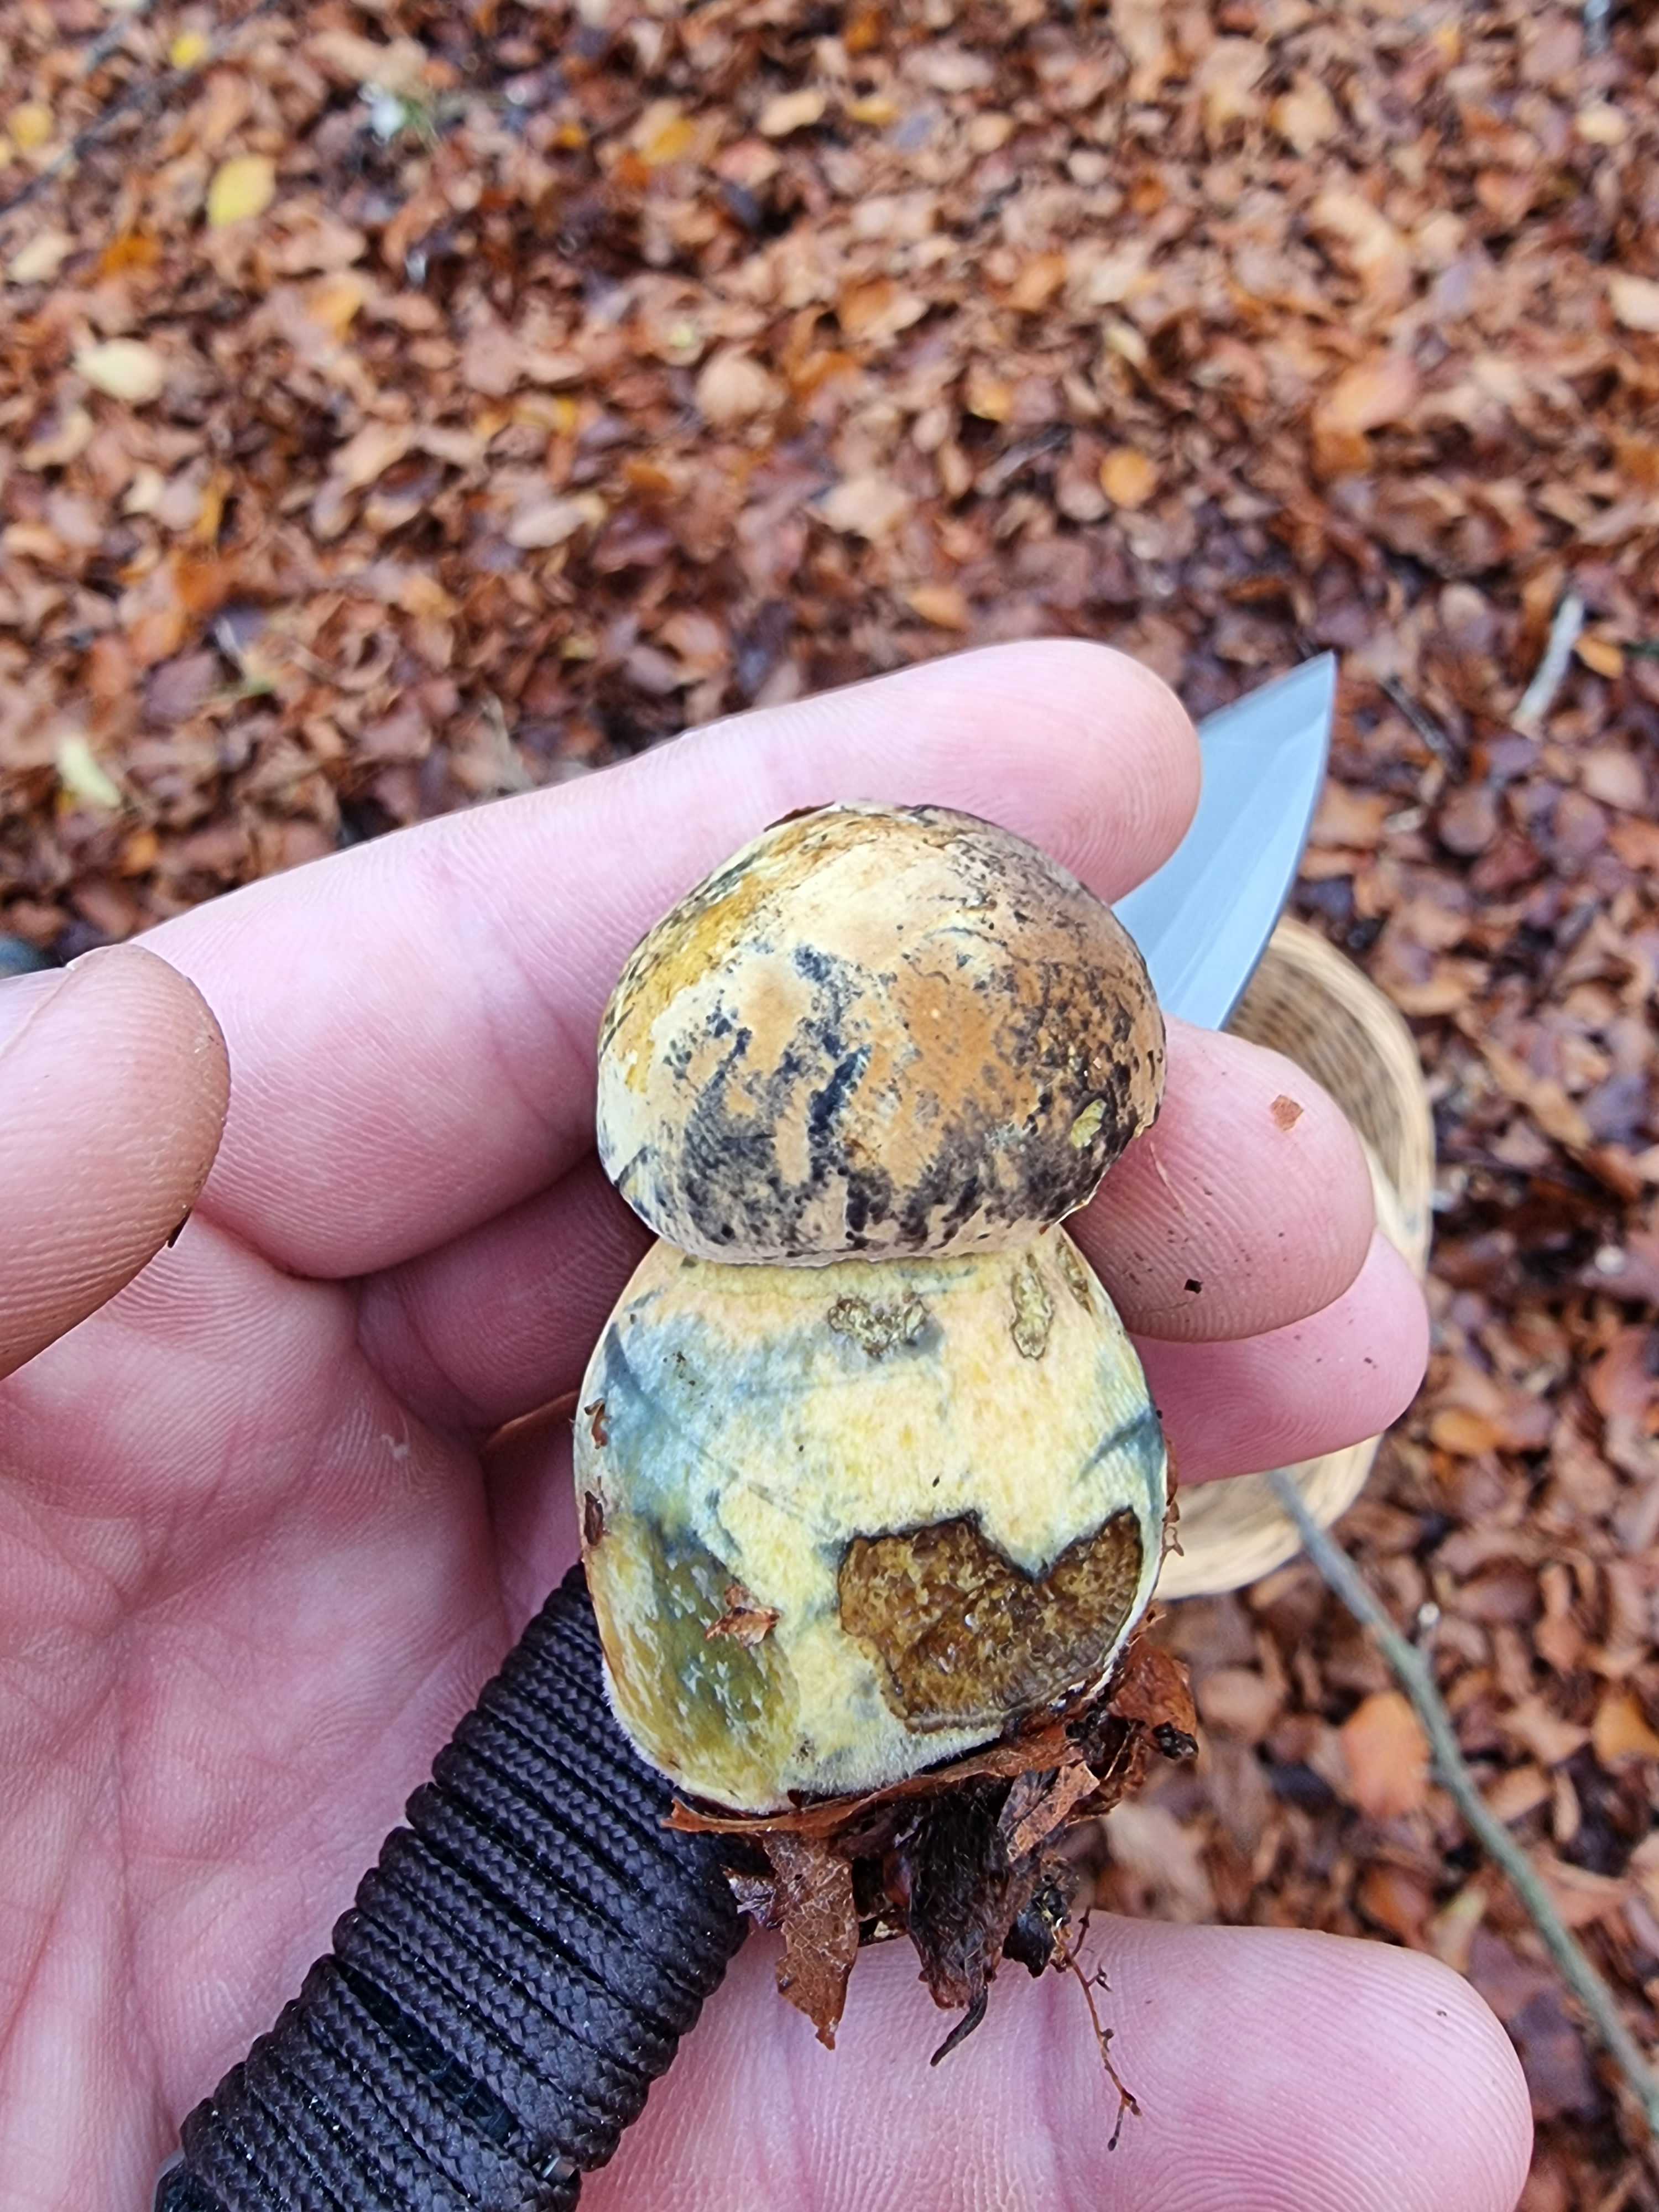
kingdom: Fungi
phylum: Basidiomycota
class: Agaricomycetes
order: Boletales
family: Boletaceae
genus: Neoboletus
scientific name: Neoboletus praestigiator
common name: gul indigorørhat
